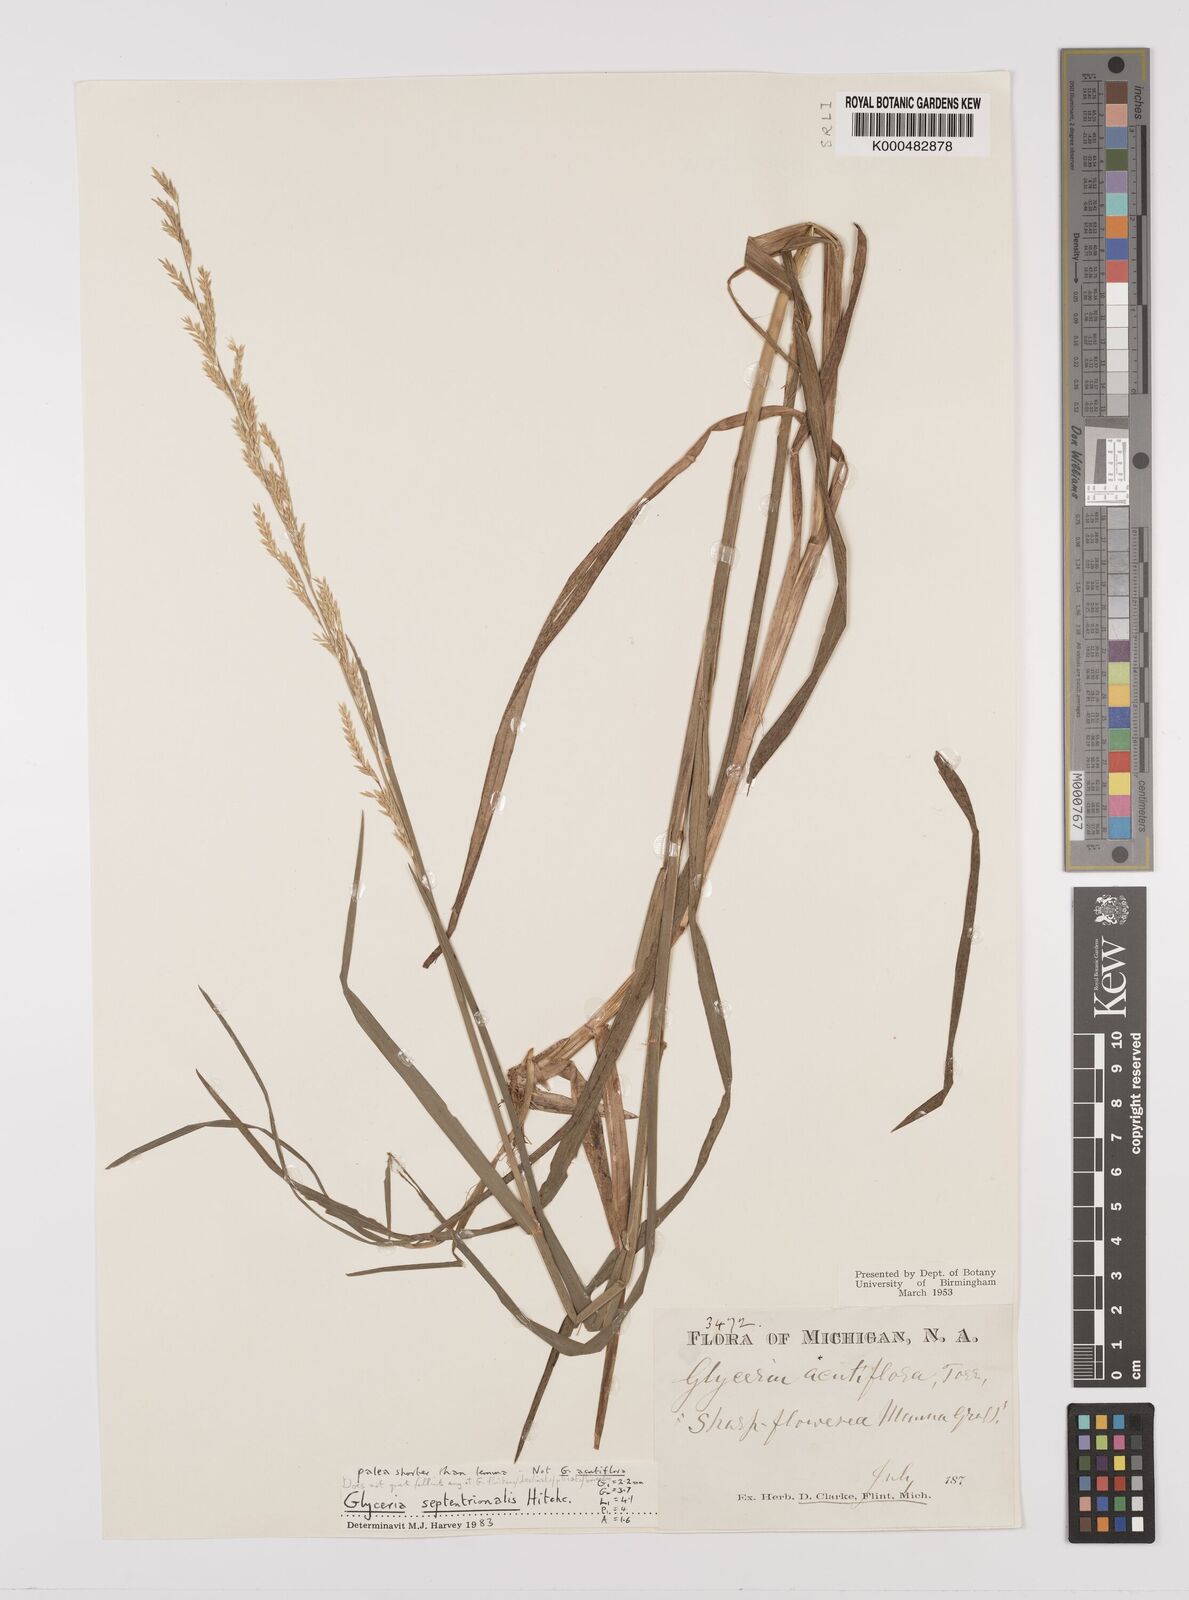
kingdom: Plantae
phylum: Tracheophyta
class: Liliopsida
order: Poales
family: Poaceae
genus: Glyceria
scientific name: Glyceria septentrionalis
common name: Eastern mannagrass
